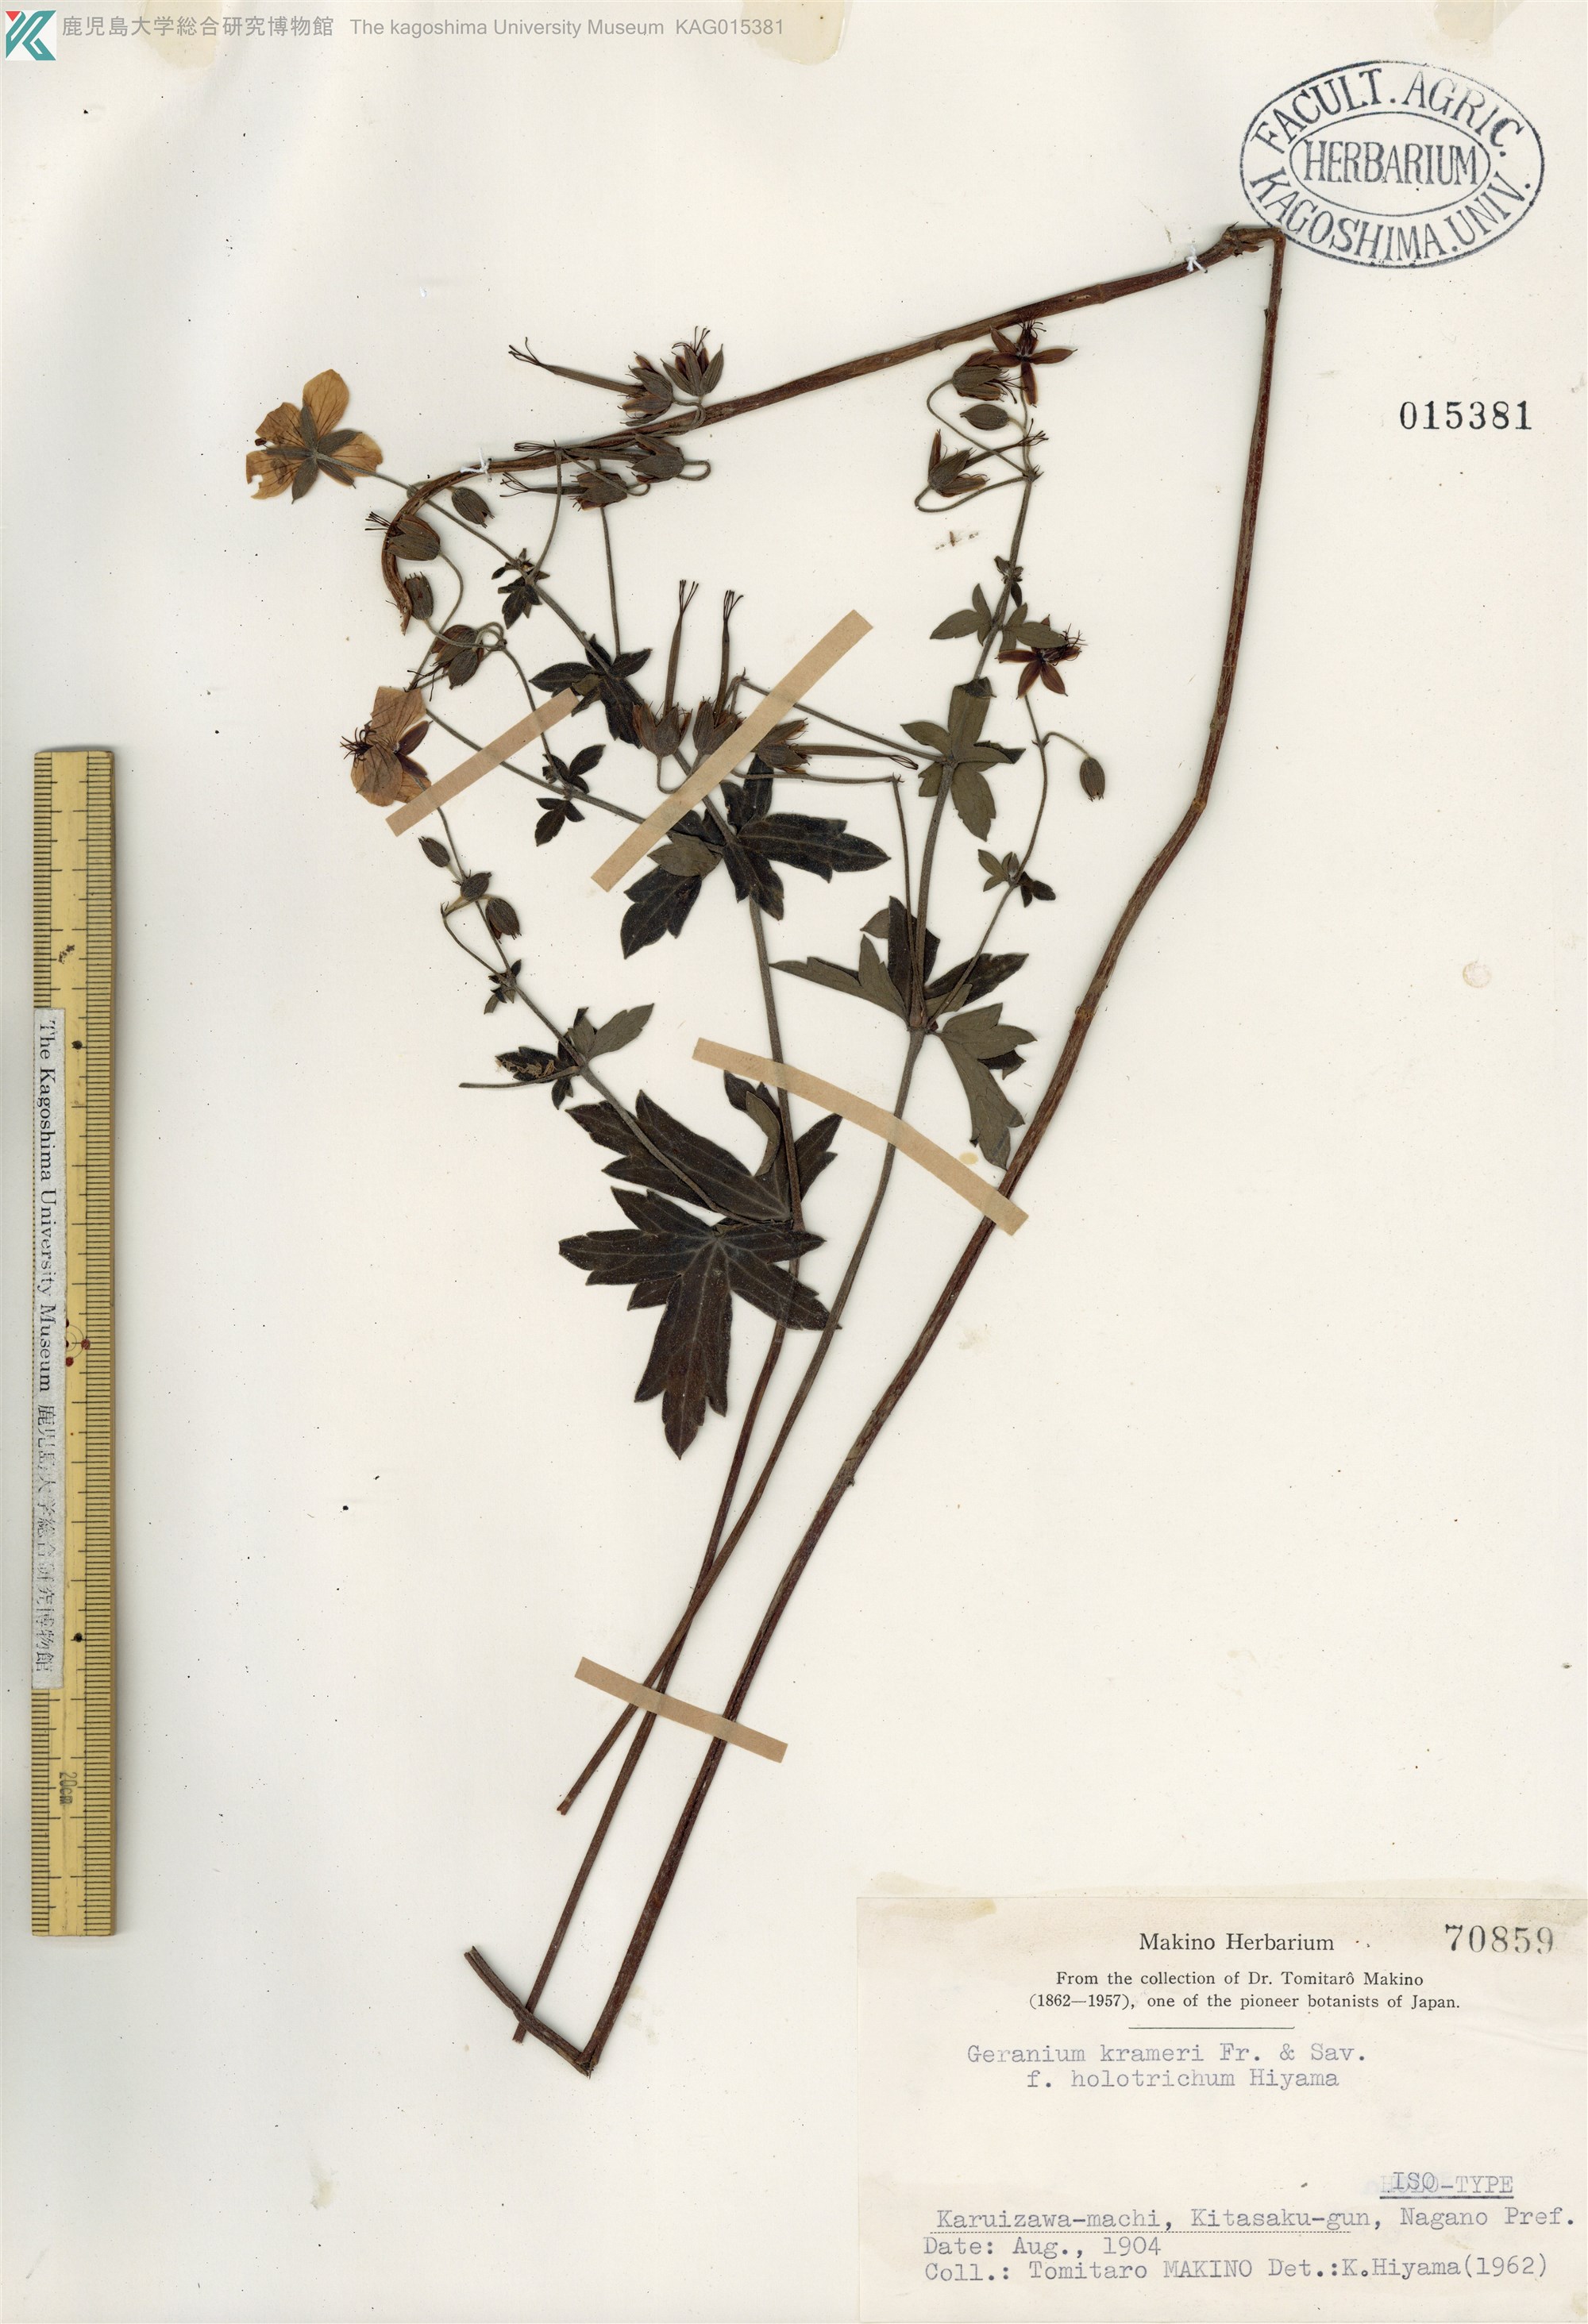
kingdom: Plantae
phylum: Tracheophyta
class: Magnoliopsida
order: Geraniales
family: Geraniaceae
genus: Geranium
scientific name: Geranium krameri
